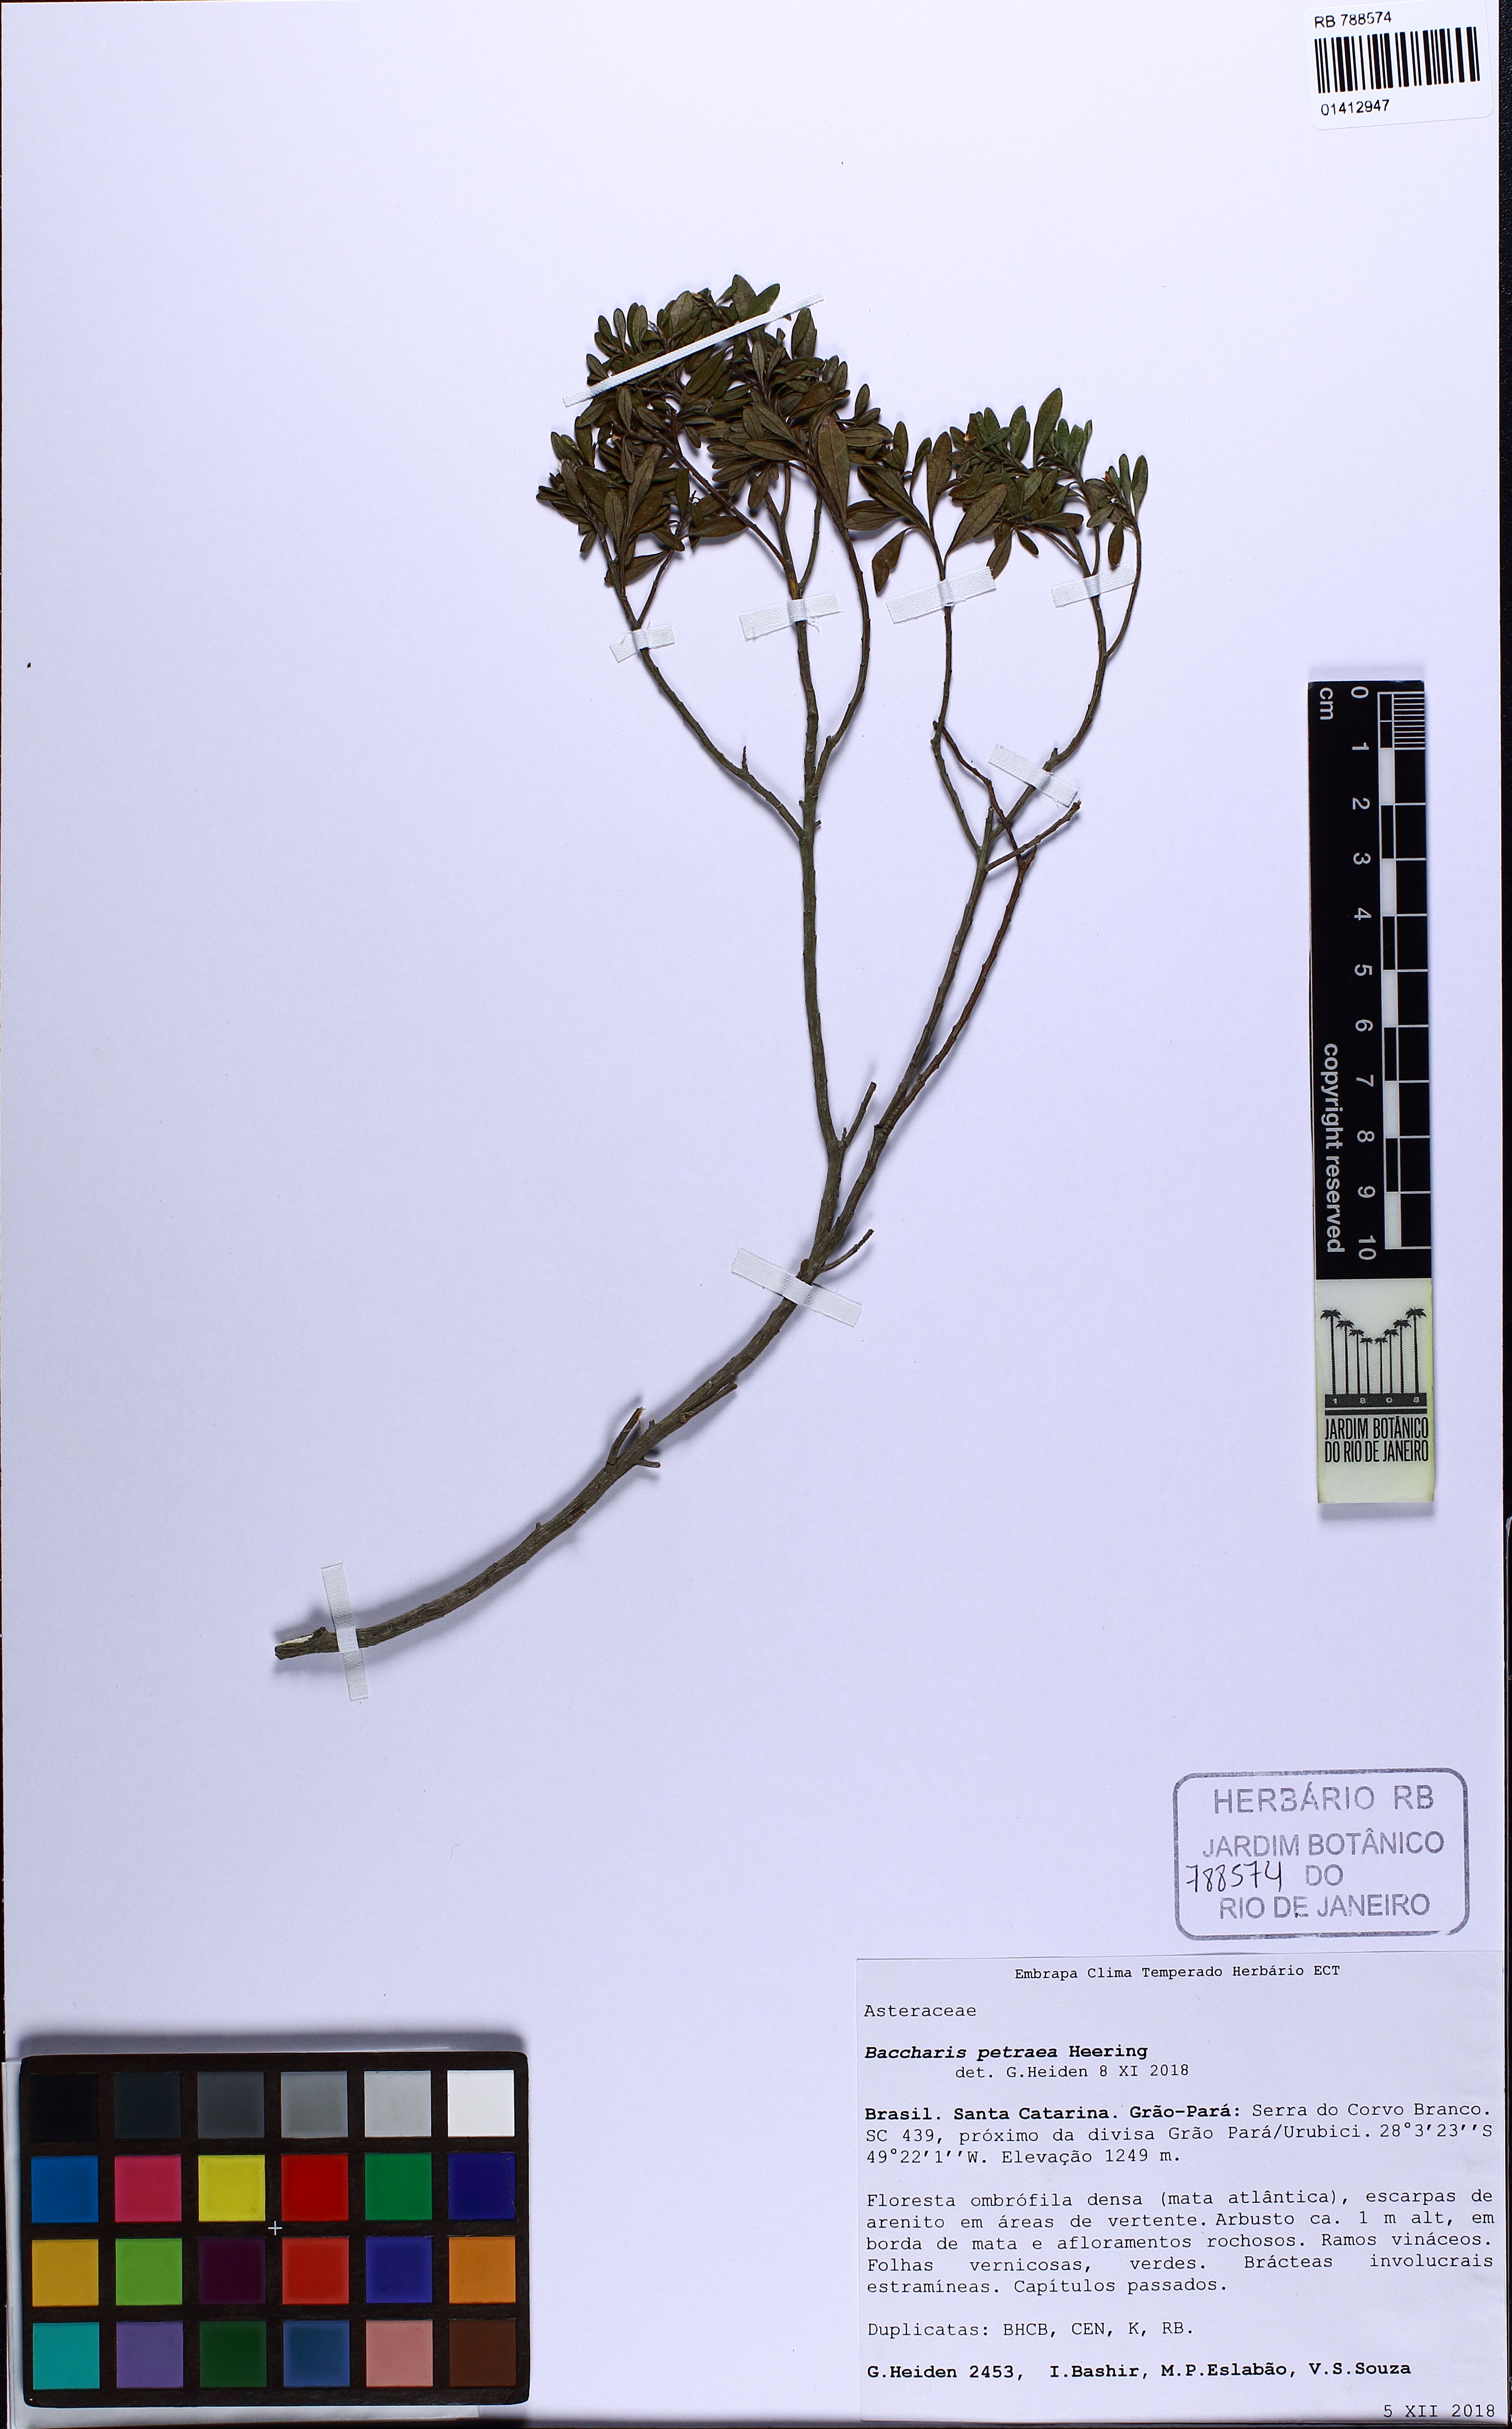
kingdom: Plantae
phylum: Tracheophyta
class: Magnoliopsida
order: Asterales
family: Asteraceae
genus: Baccharis
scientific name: Baccharis petraea
